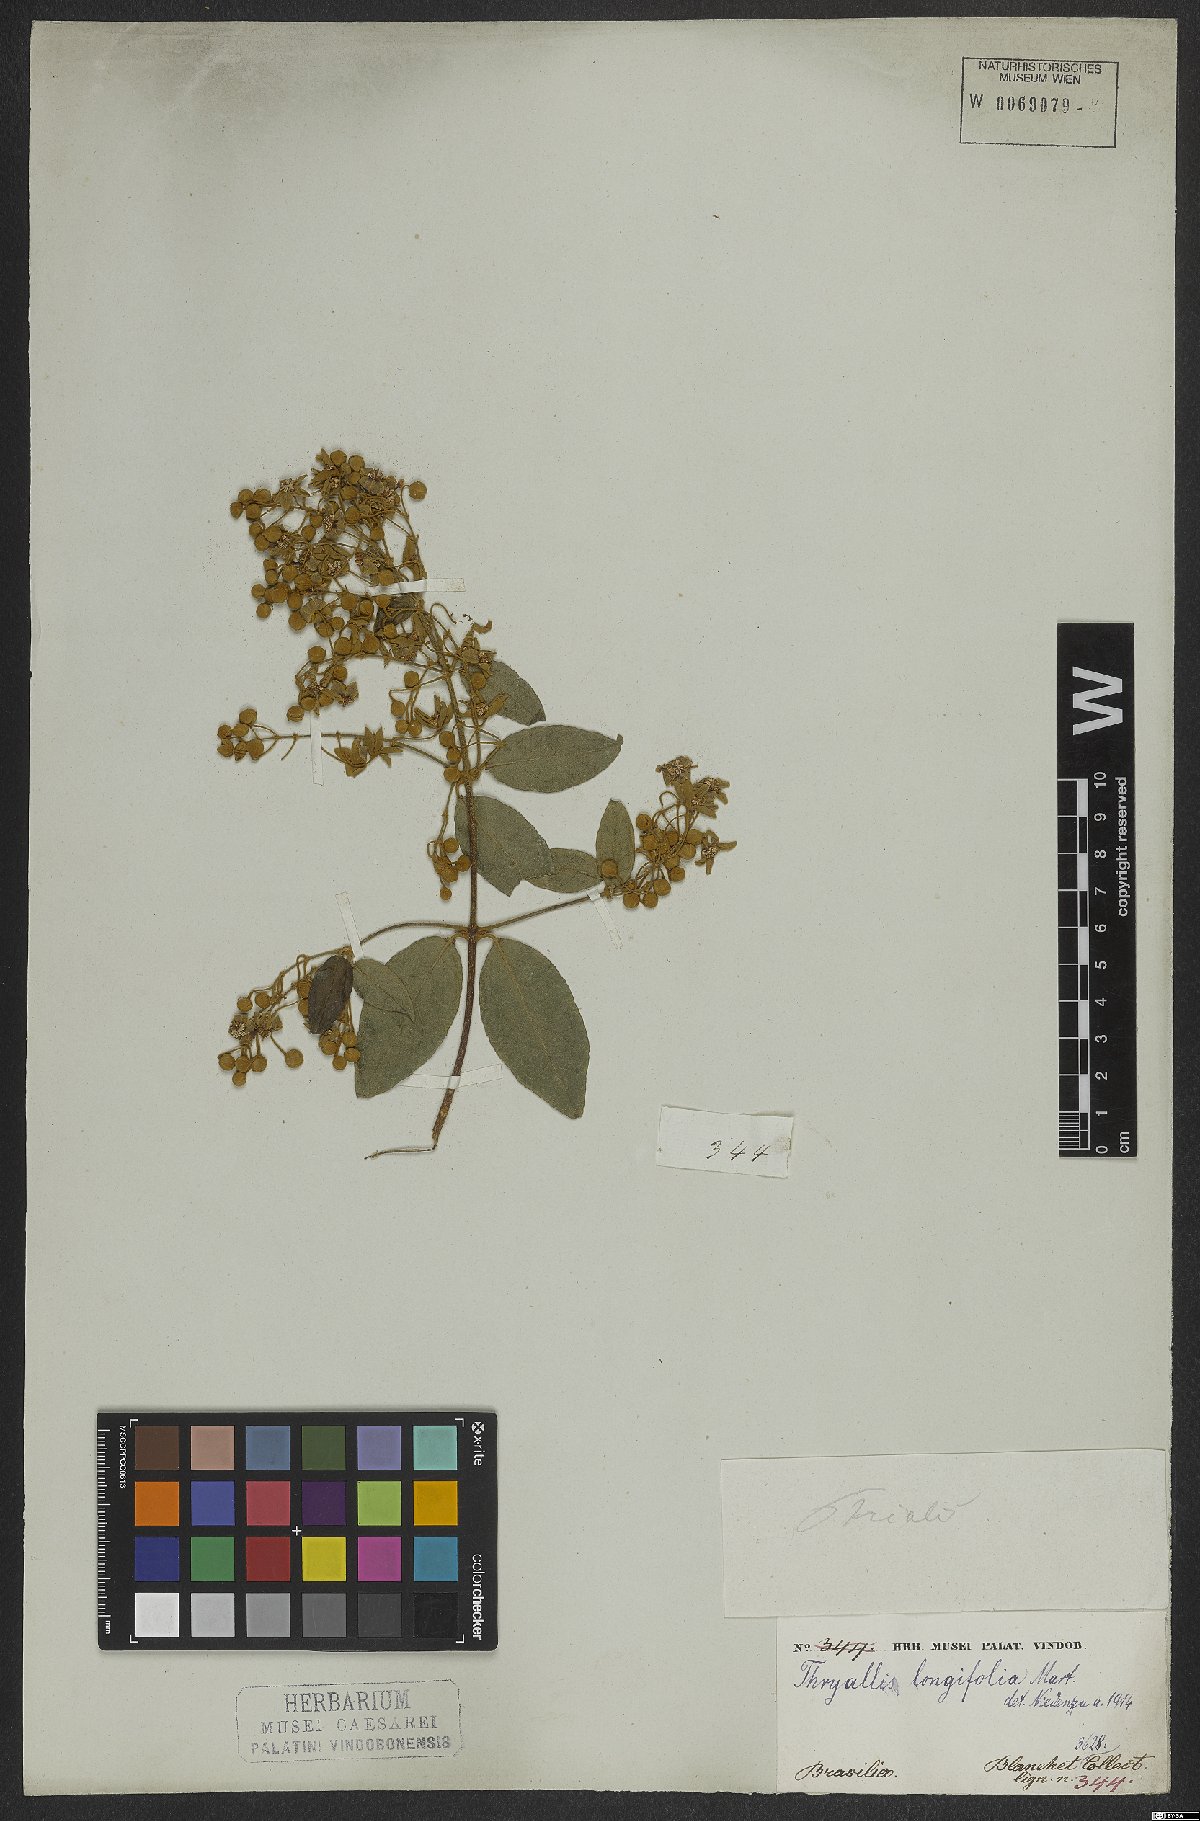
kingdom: Plantae
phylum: Tracheophyta
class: Magnoliopsida
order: Malpighiales
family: Malpighiaceae
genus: Thryallis
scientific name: Thryallis longifolia
